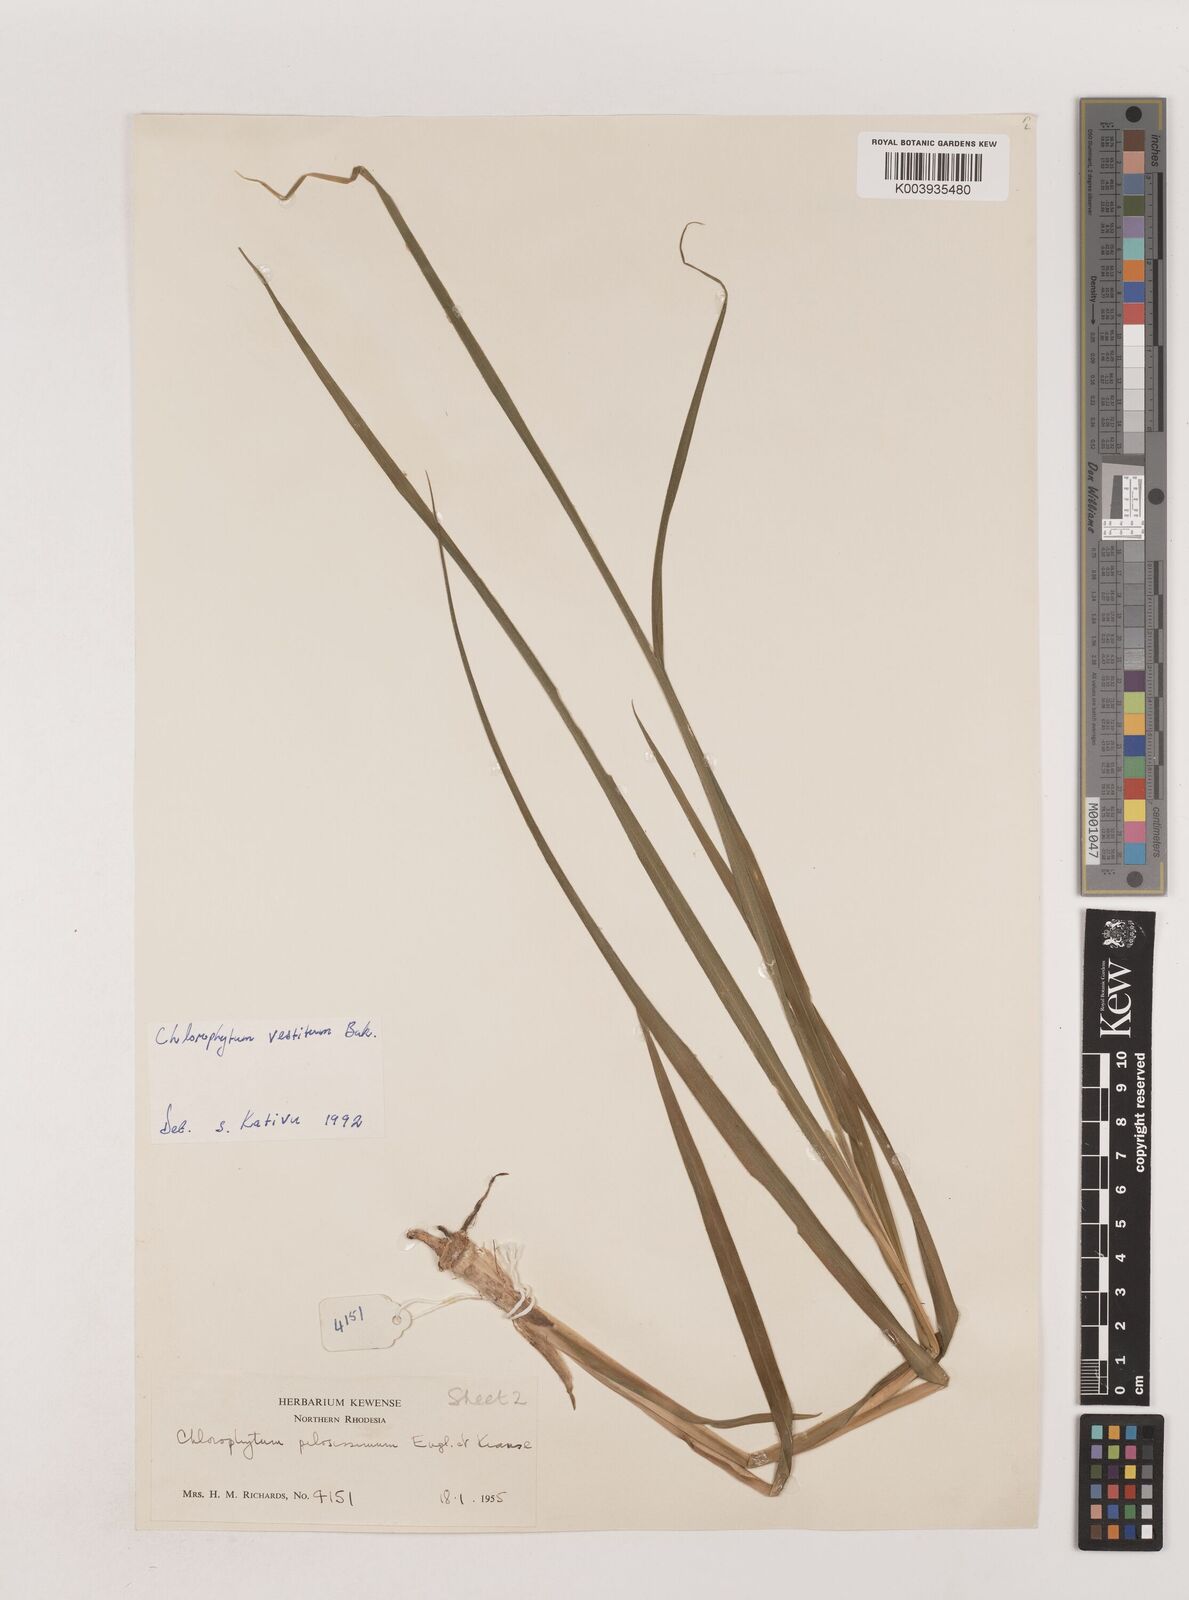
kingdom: Plantae
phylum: Tracheophyta
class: Liliopsida
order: Asparagales
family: Asparagaceae
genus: Chlorophytum
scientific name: Chlorophytum vestitum
